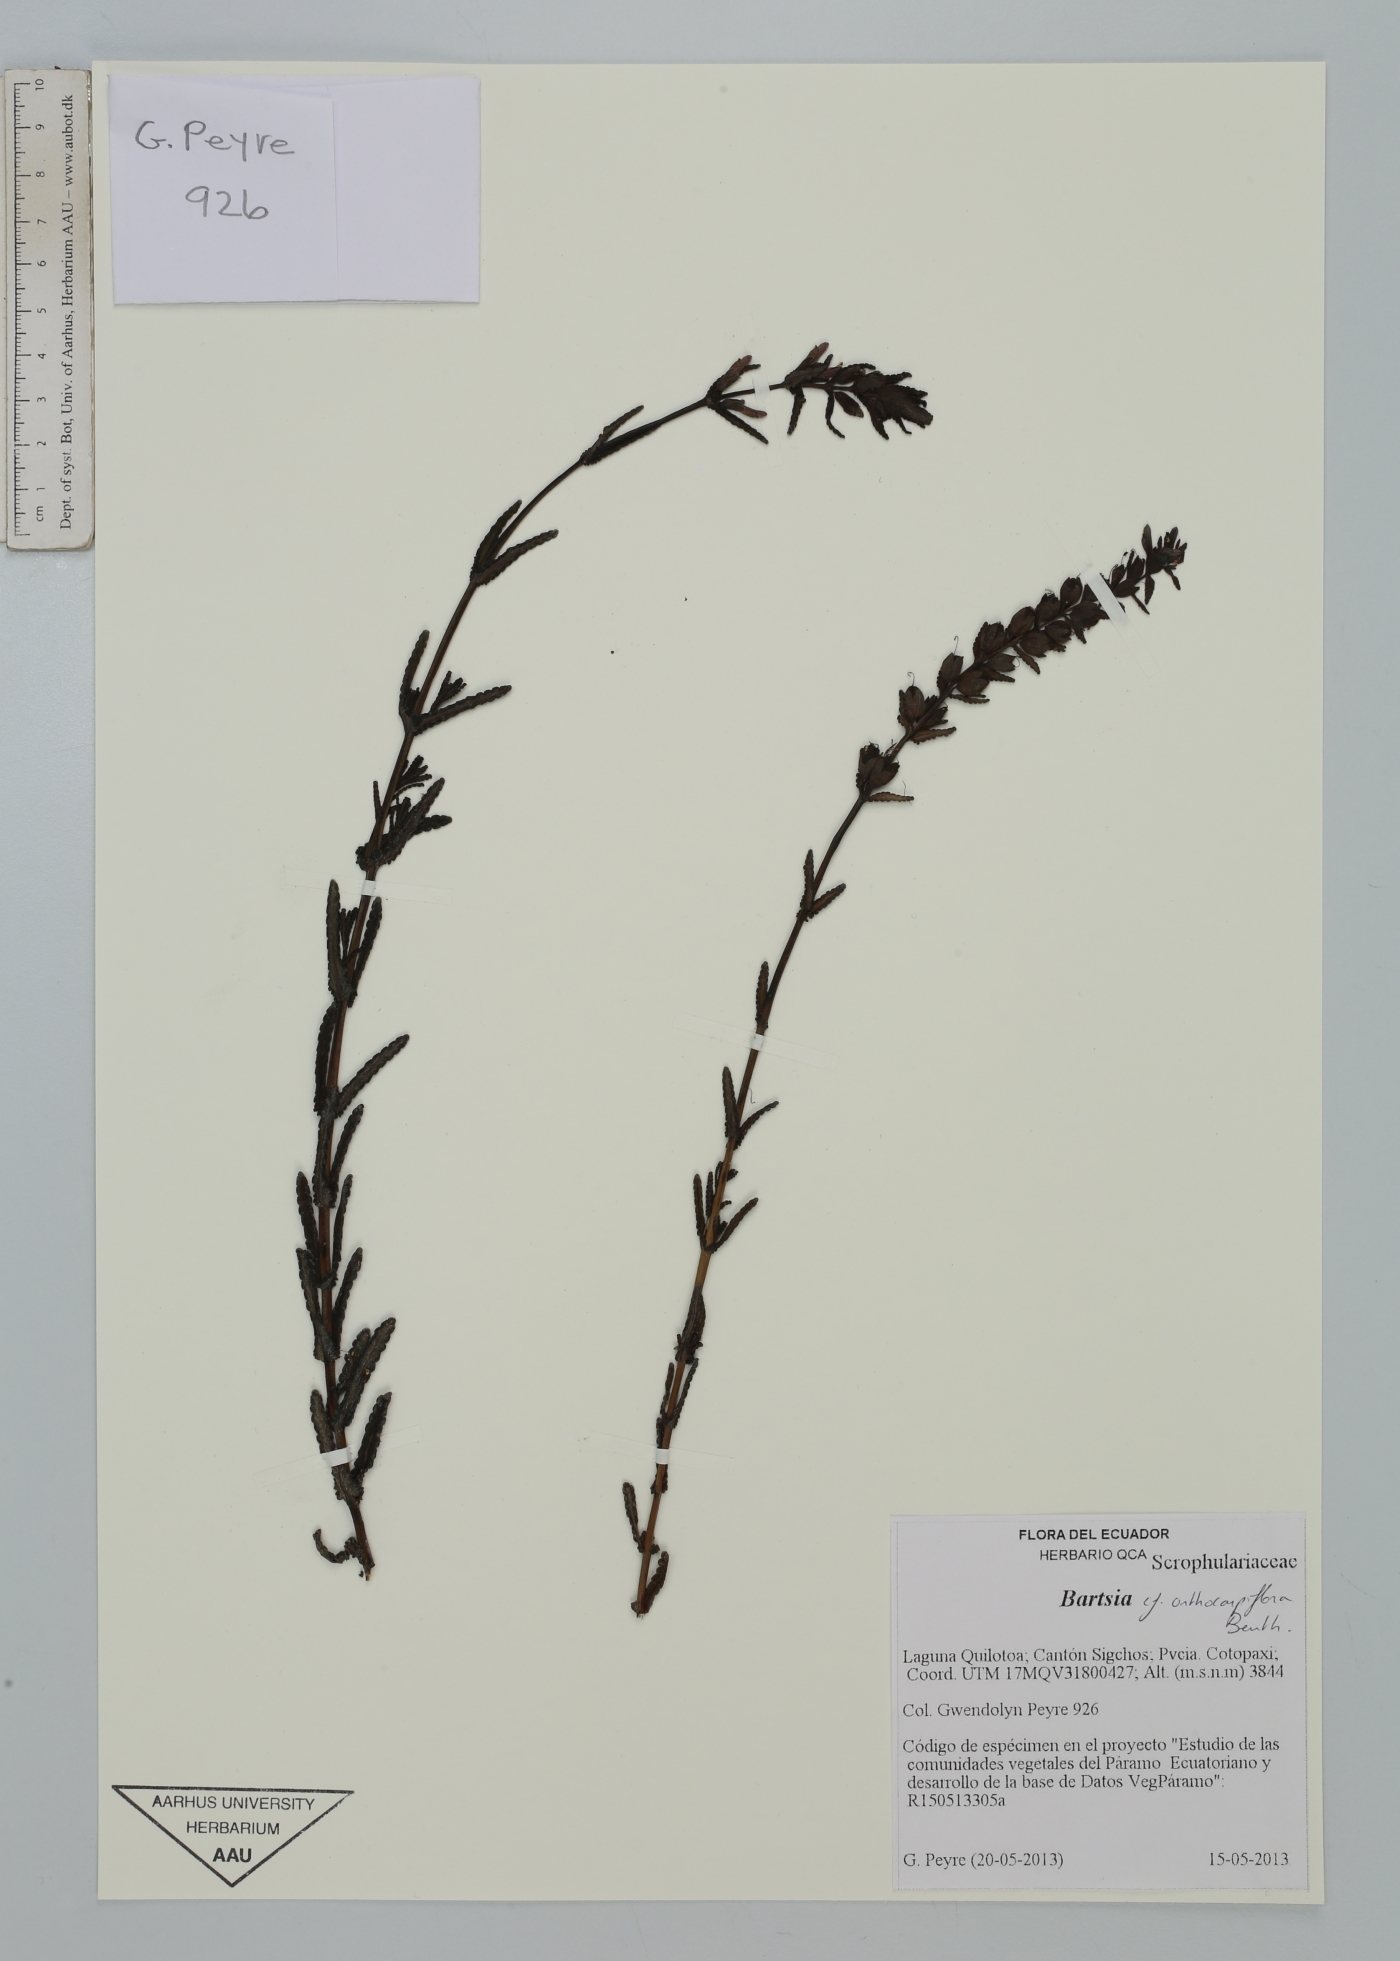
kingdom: Plantae
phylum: Tracheophyta
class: Magnoliopsida
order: Lamiales
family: Orobanchaceae
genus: Neobartsia
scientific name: Neobartsia orthocarpiflora
